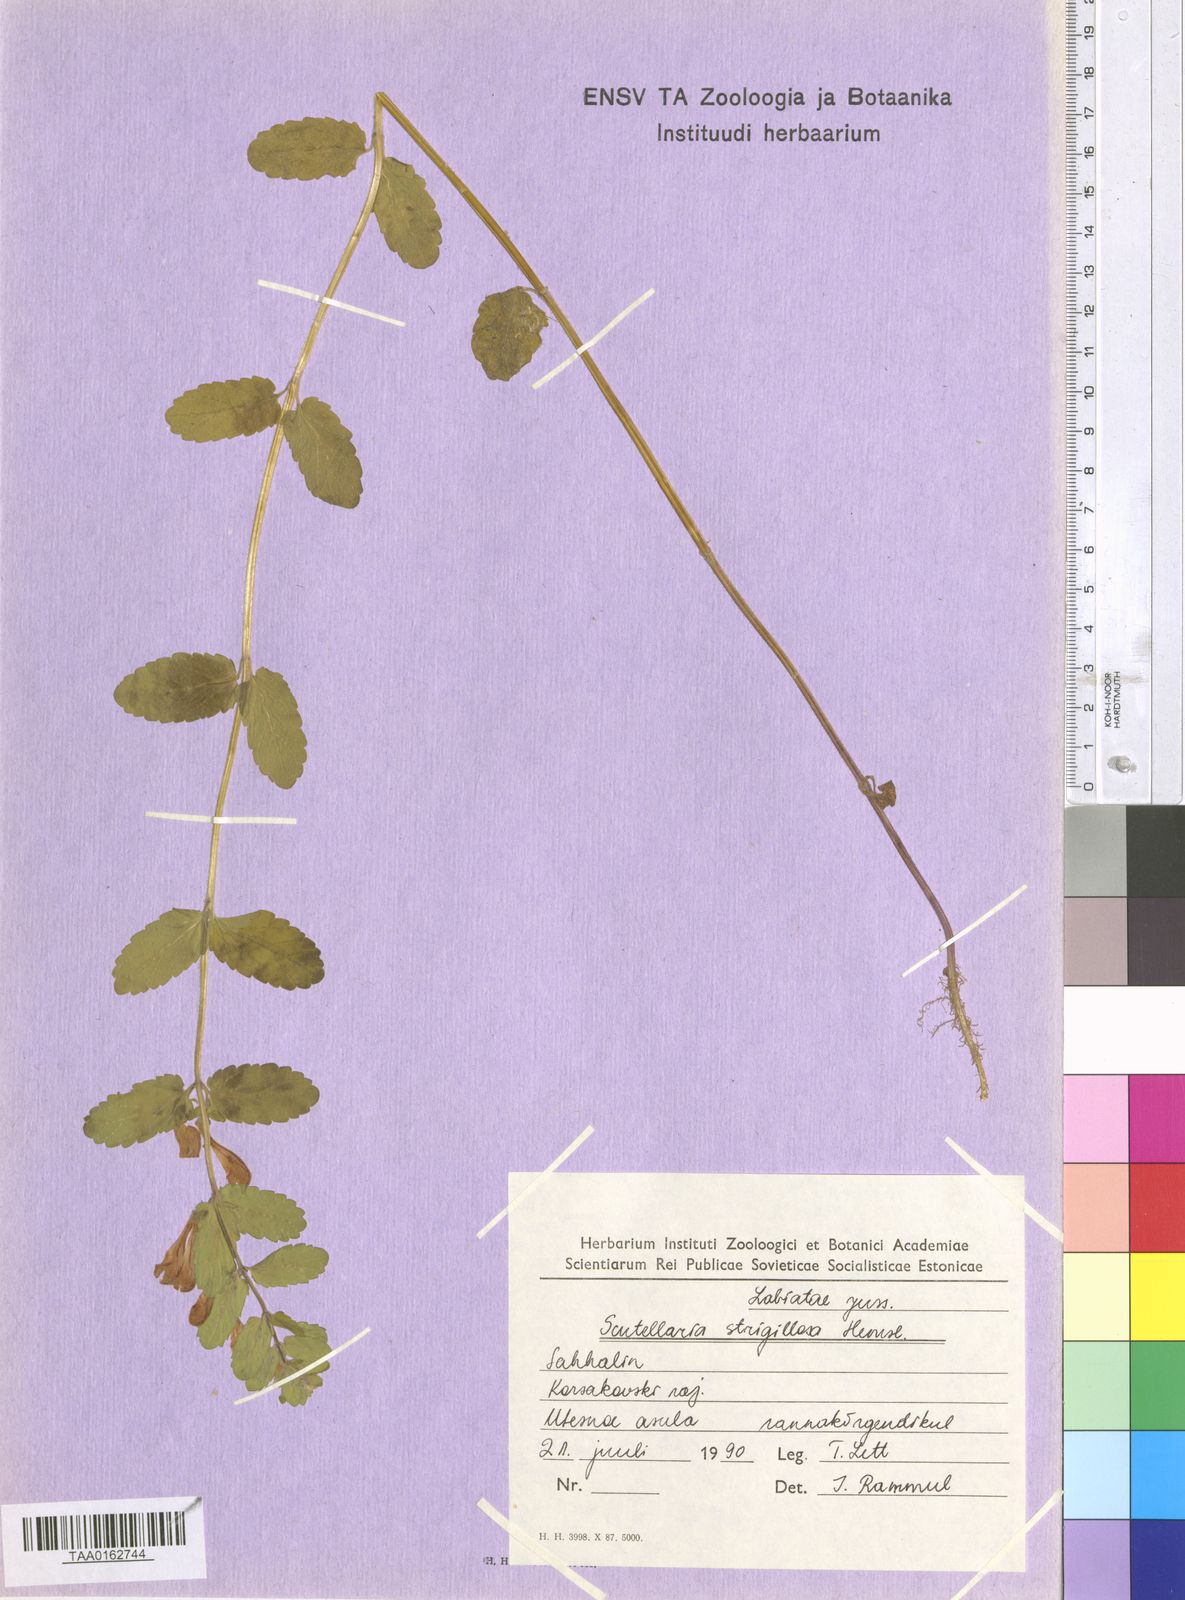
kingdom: Plantae
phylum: Tracheophyta
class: Magnoliopsida
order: Lamiales
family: Lamiaceae
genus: Scutellaria
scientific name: Scutellaria strigillosa
